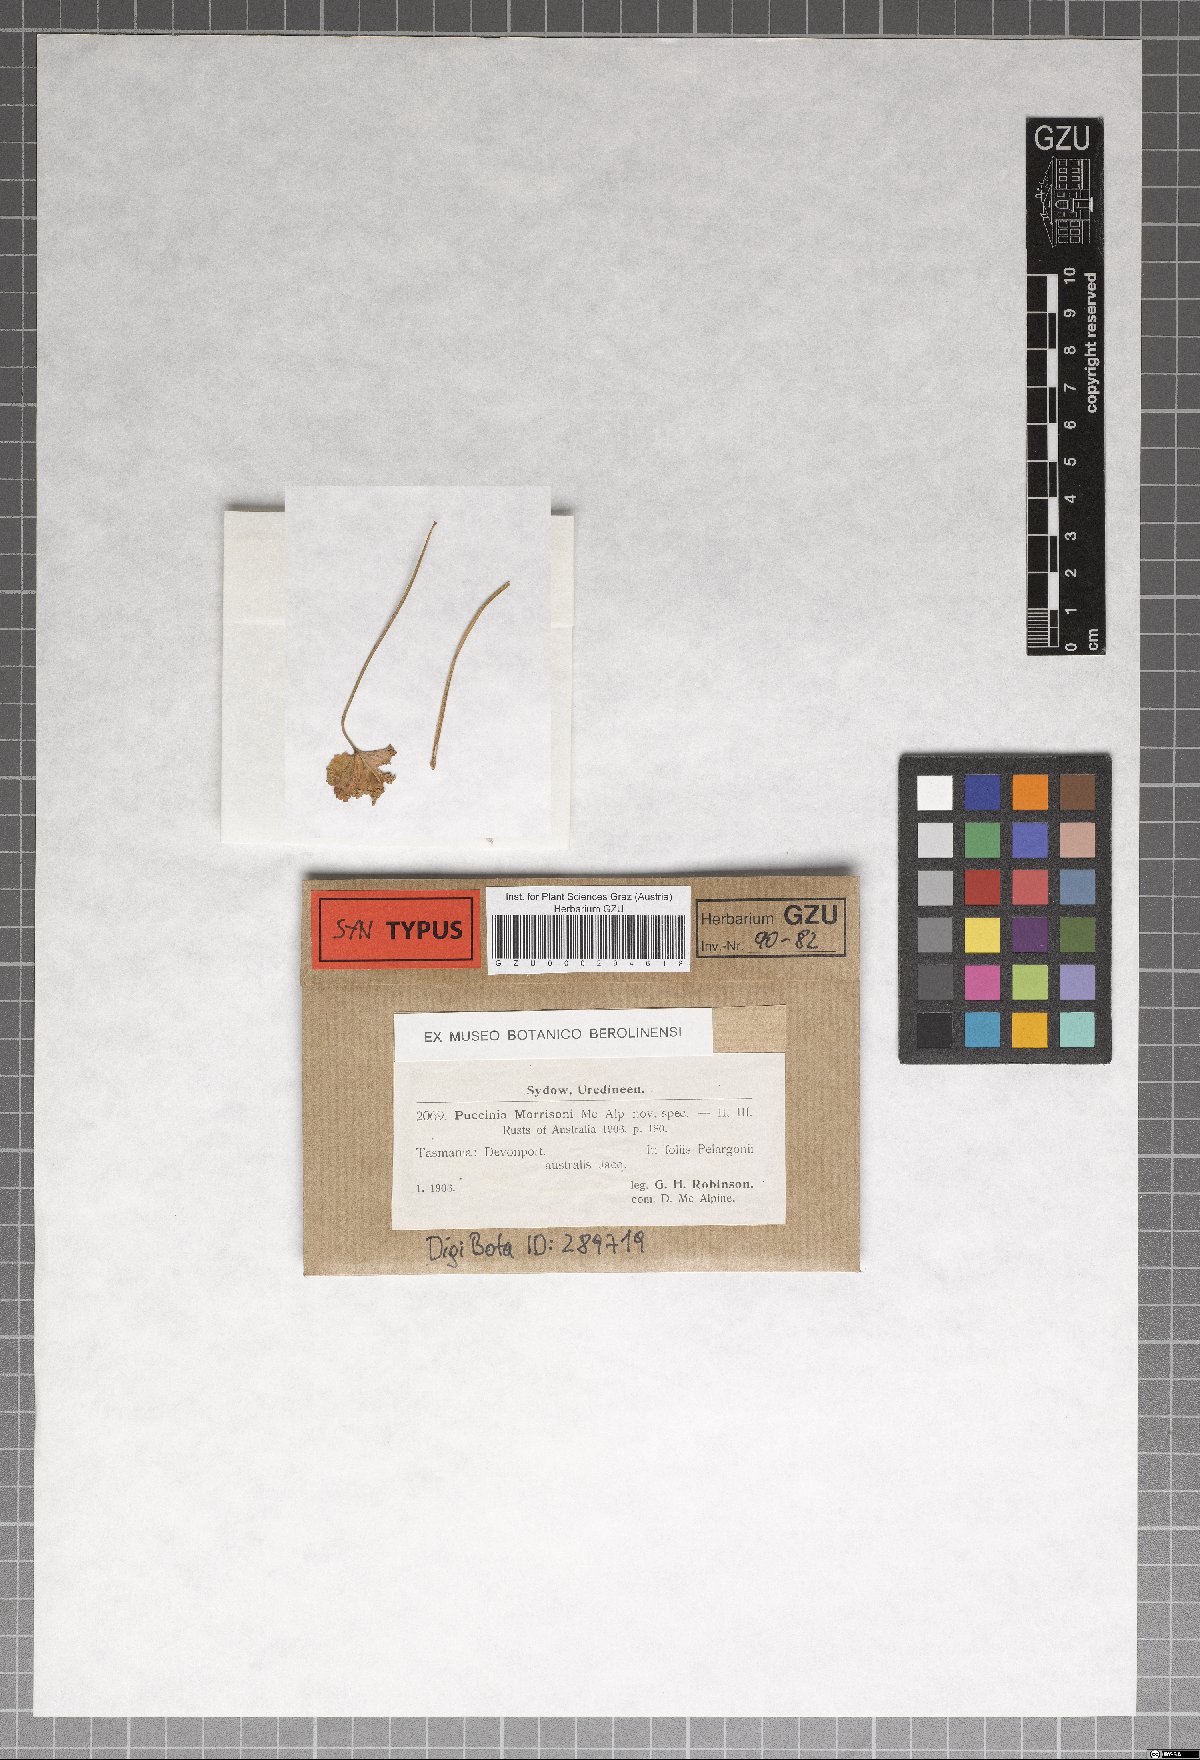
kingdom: Fungi
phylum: Basidiomycota
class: Pucciniomycetes
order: Pucciniales
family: Pucciniaceae
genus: Puccinia
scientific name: Puccinia morrisonii
